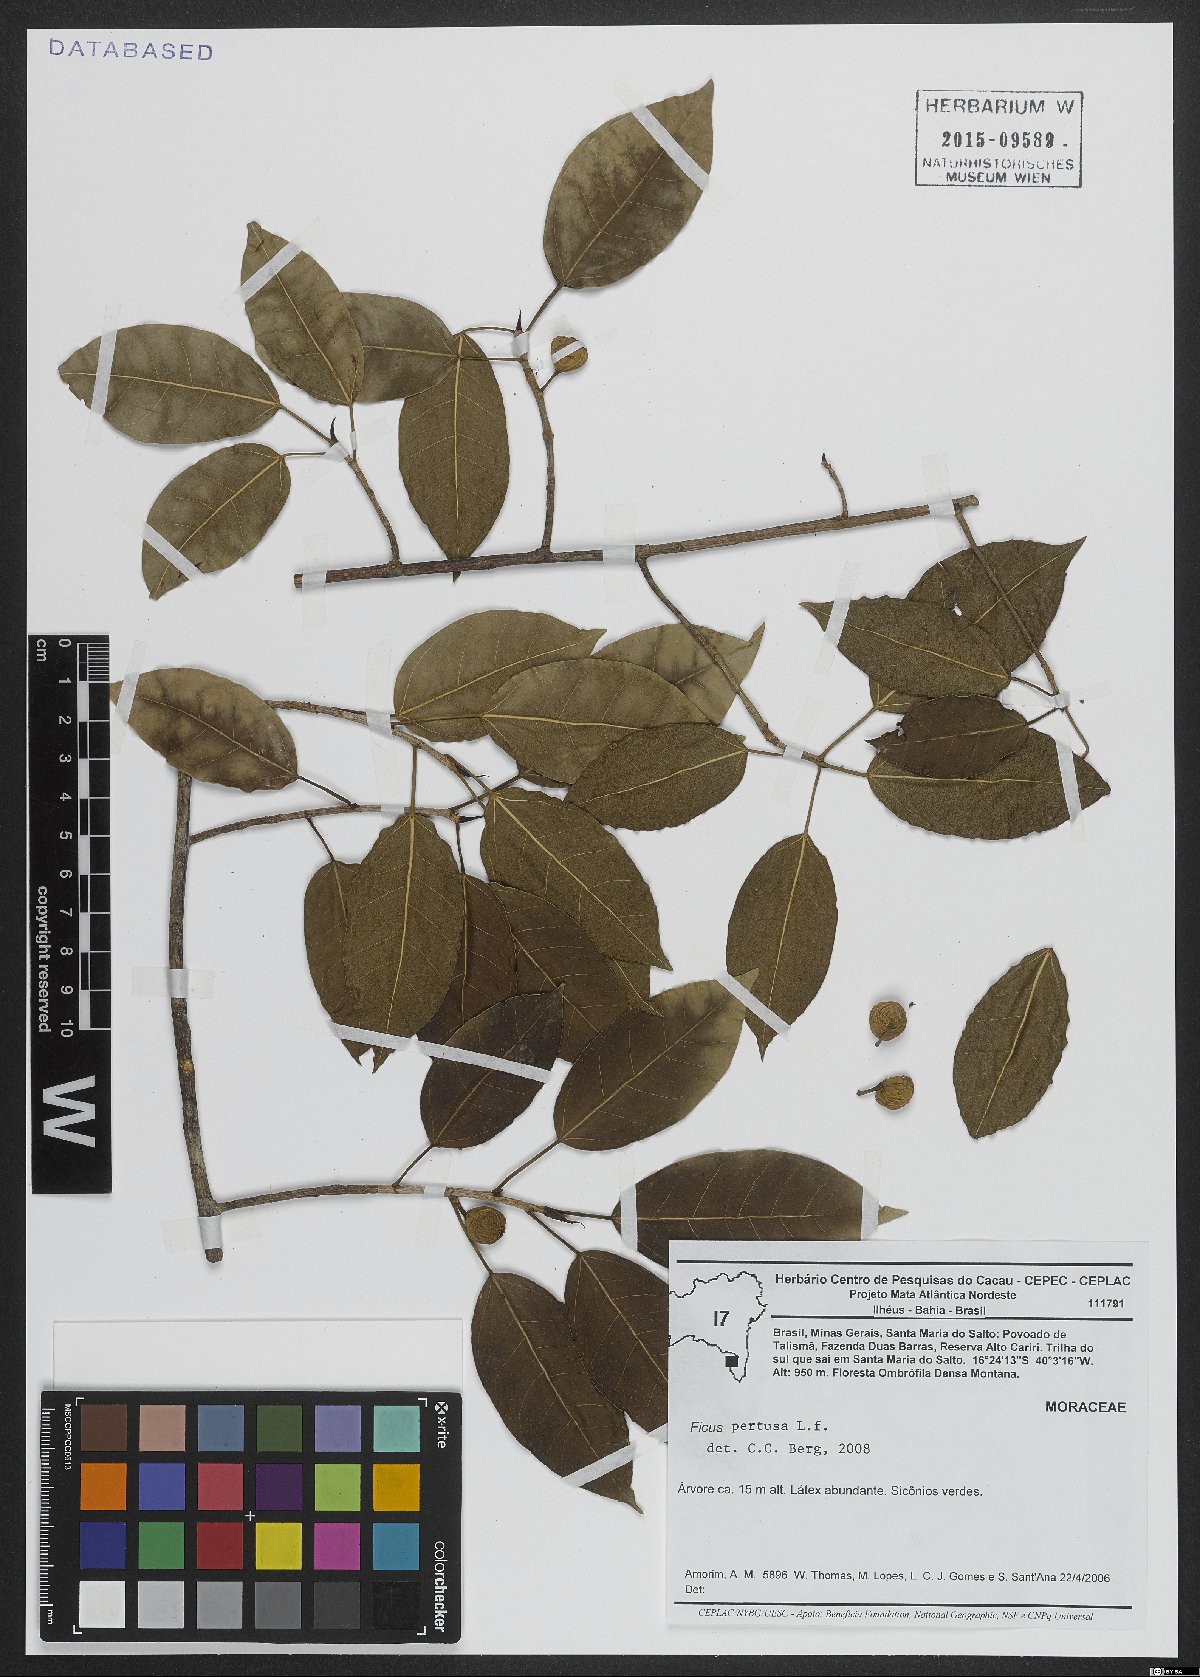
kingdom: Plantae
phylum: Tracheophyta
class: Magnoliopsida
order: Rosales
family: Moraceae
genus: Ficus
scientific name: Ficus pertusa
